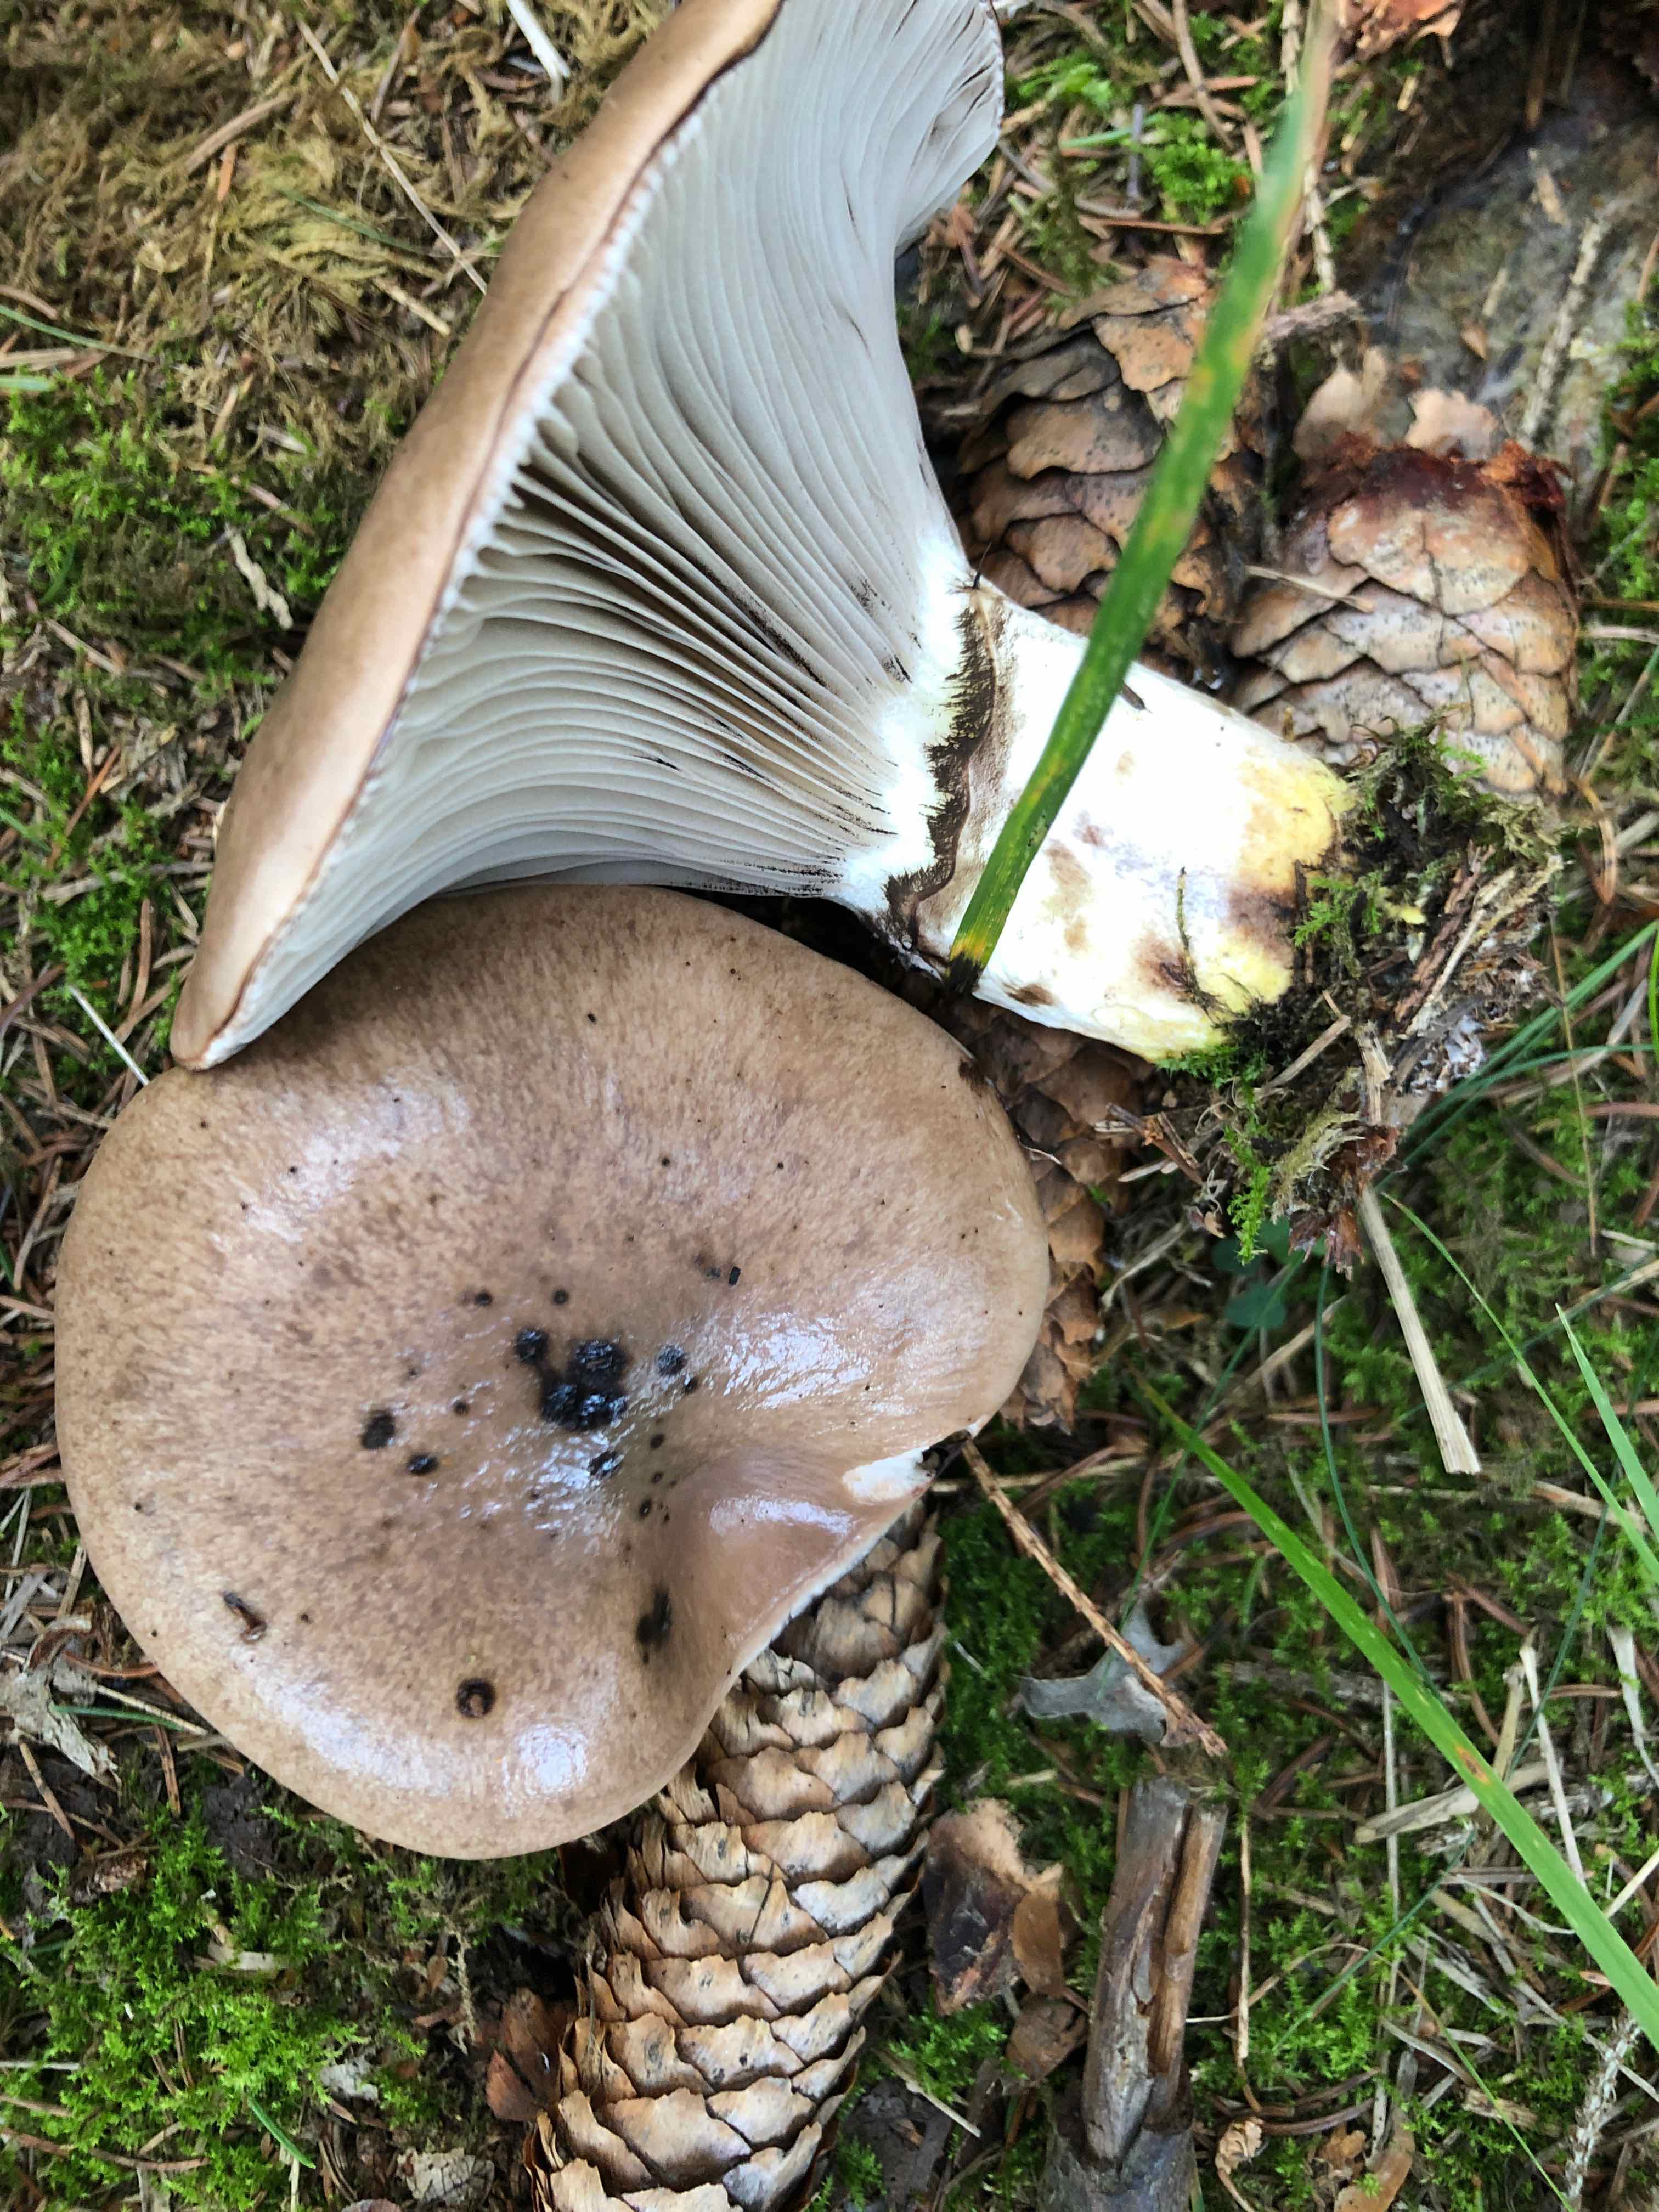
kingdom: Fungi
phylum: Basidiomycota
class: Agaricomycetes
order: Boletales
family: Gomphidiaceae
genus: Gomphidius
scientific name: Gomphidius glutinosus
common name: grå slimslør
